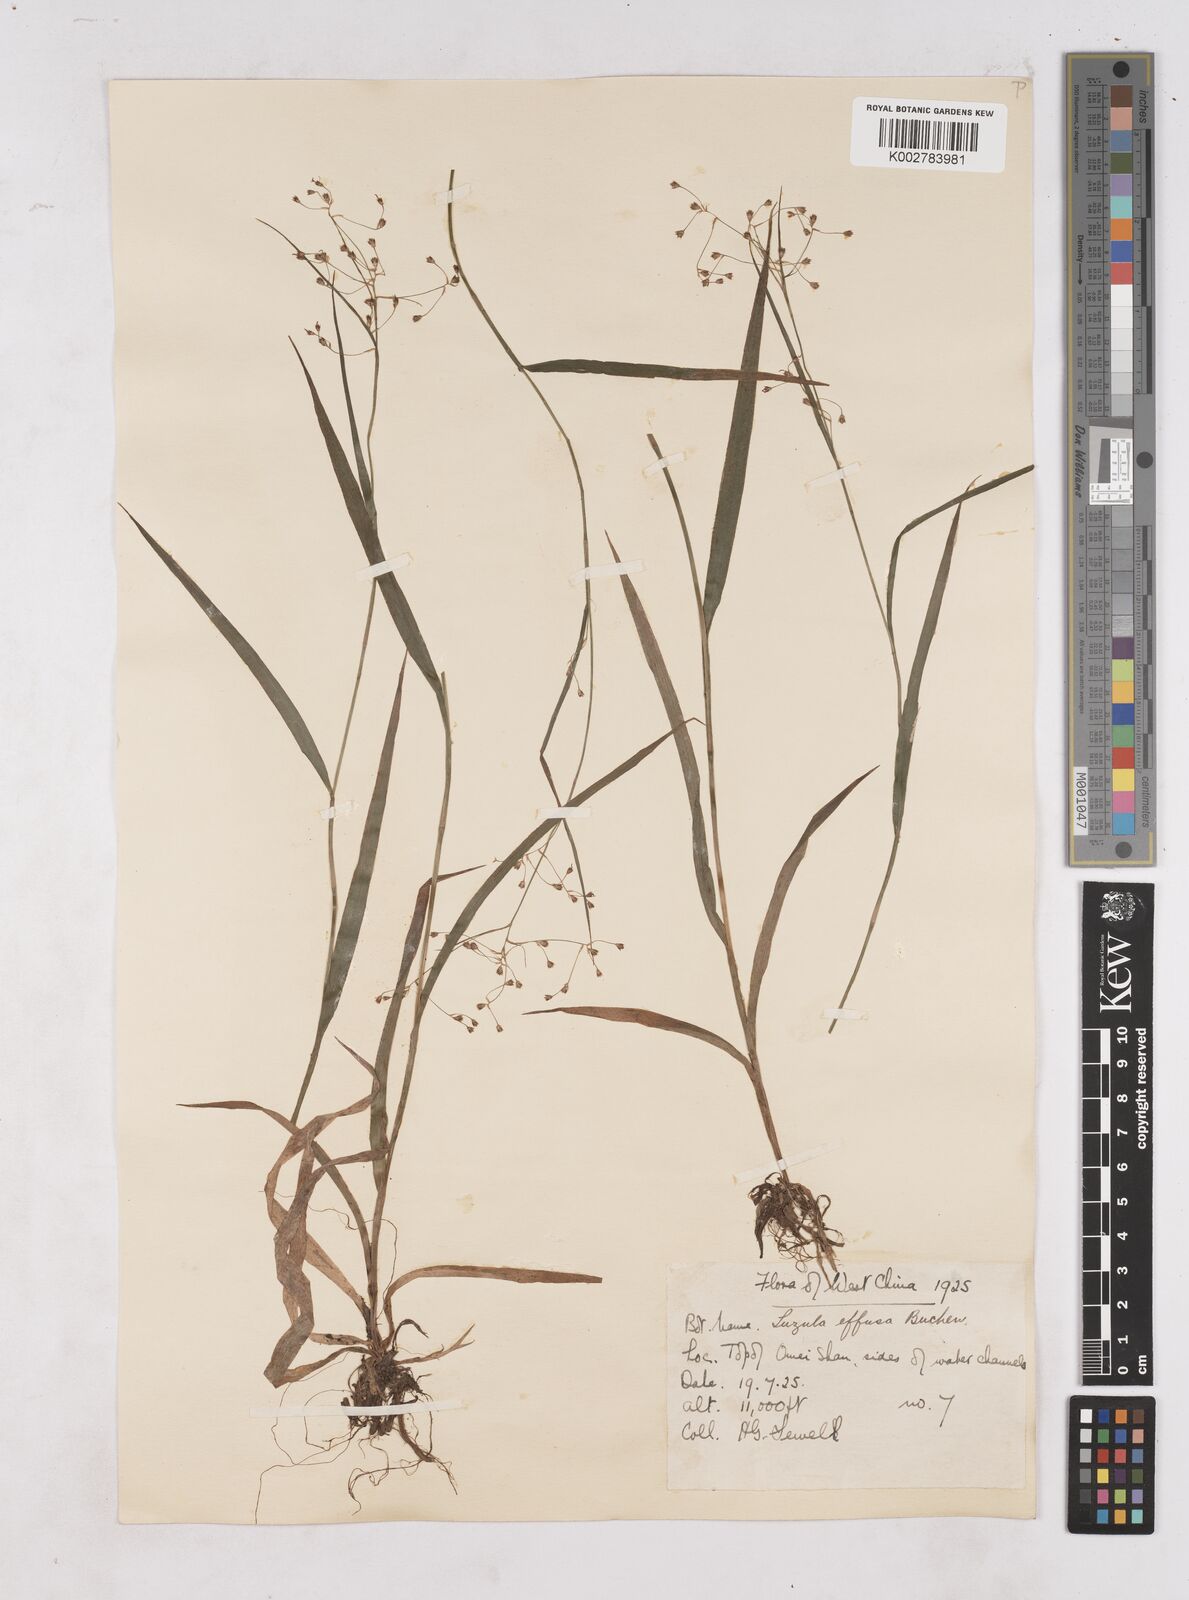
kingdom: Plantae
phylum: Tracheophyta
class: Liliopsida
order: Poales
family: Juncaceae
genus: Luzula
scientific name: Luzula effusa
